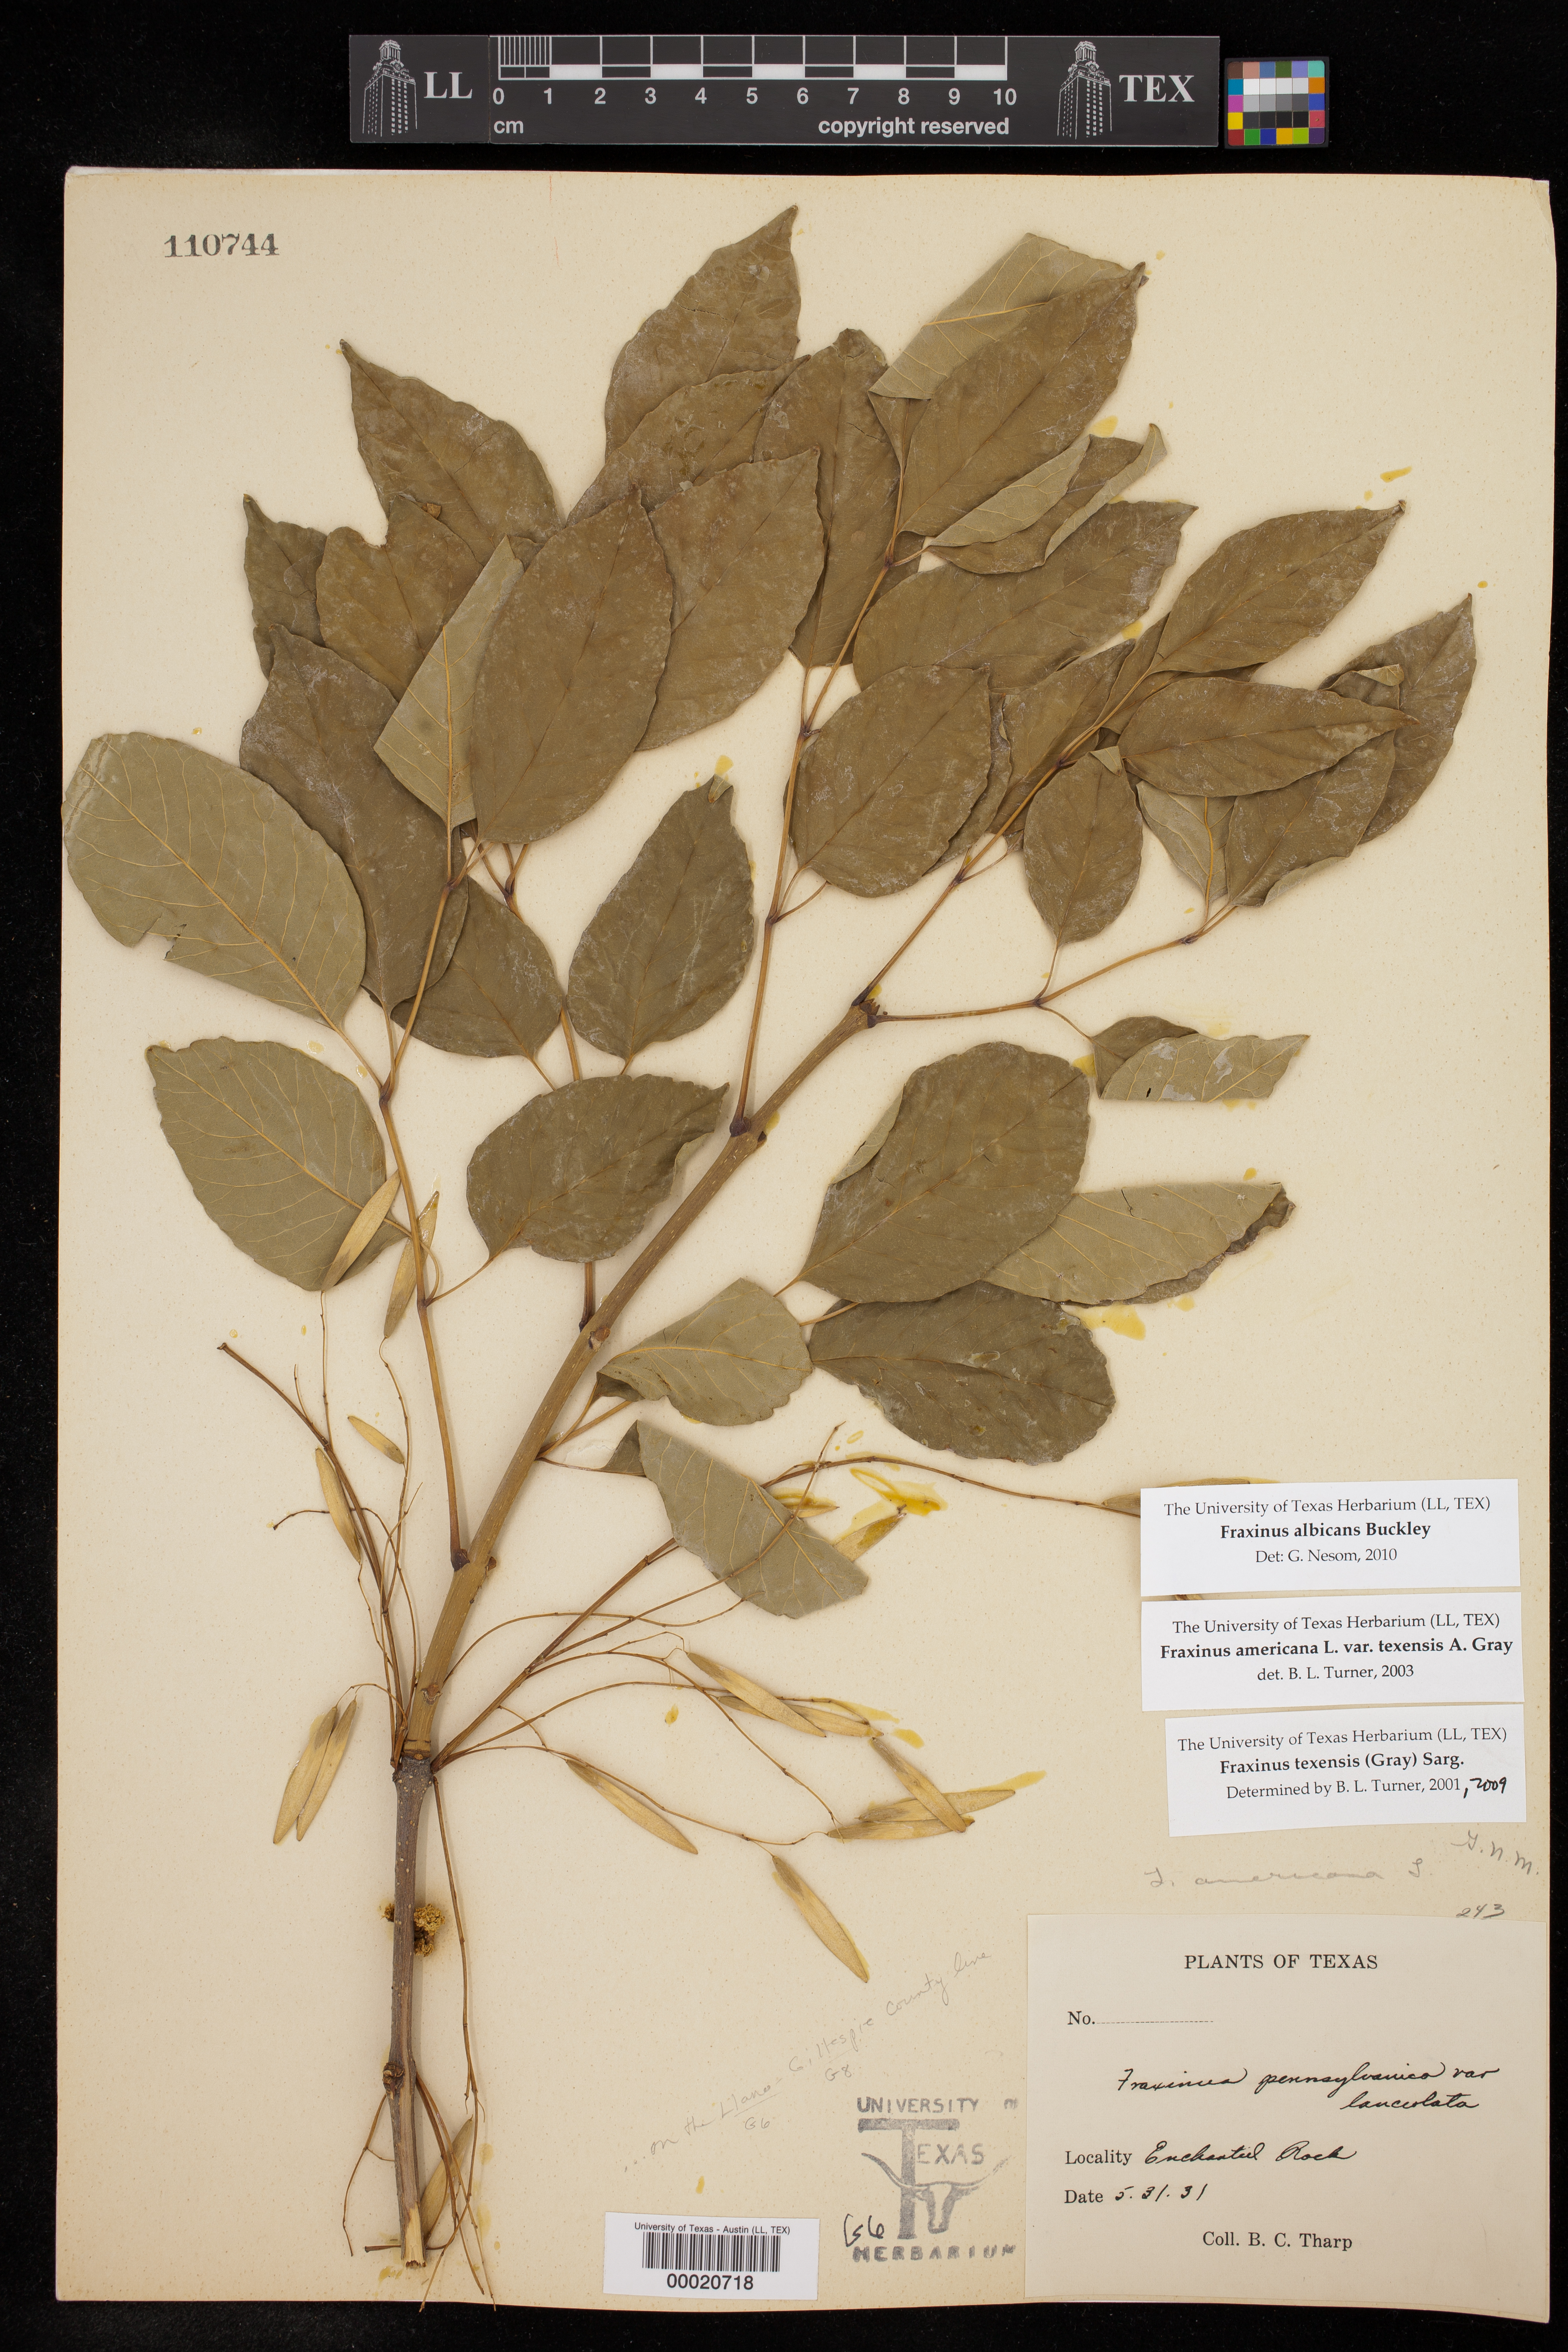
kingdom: Plantae
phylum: Tracheophyta
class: Magnoliopsida
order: Lamiales
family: Oleaceae
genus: Fraxinus
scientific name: Fraxinus albicans
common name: Texas ash
